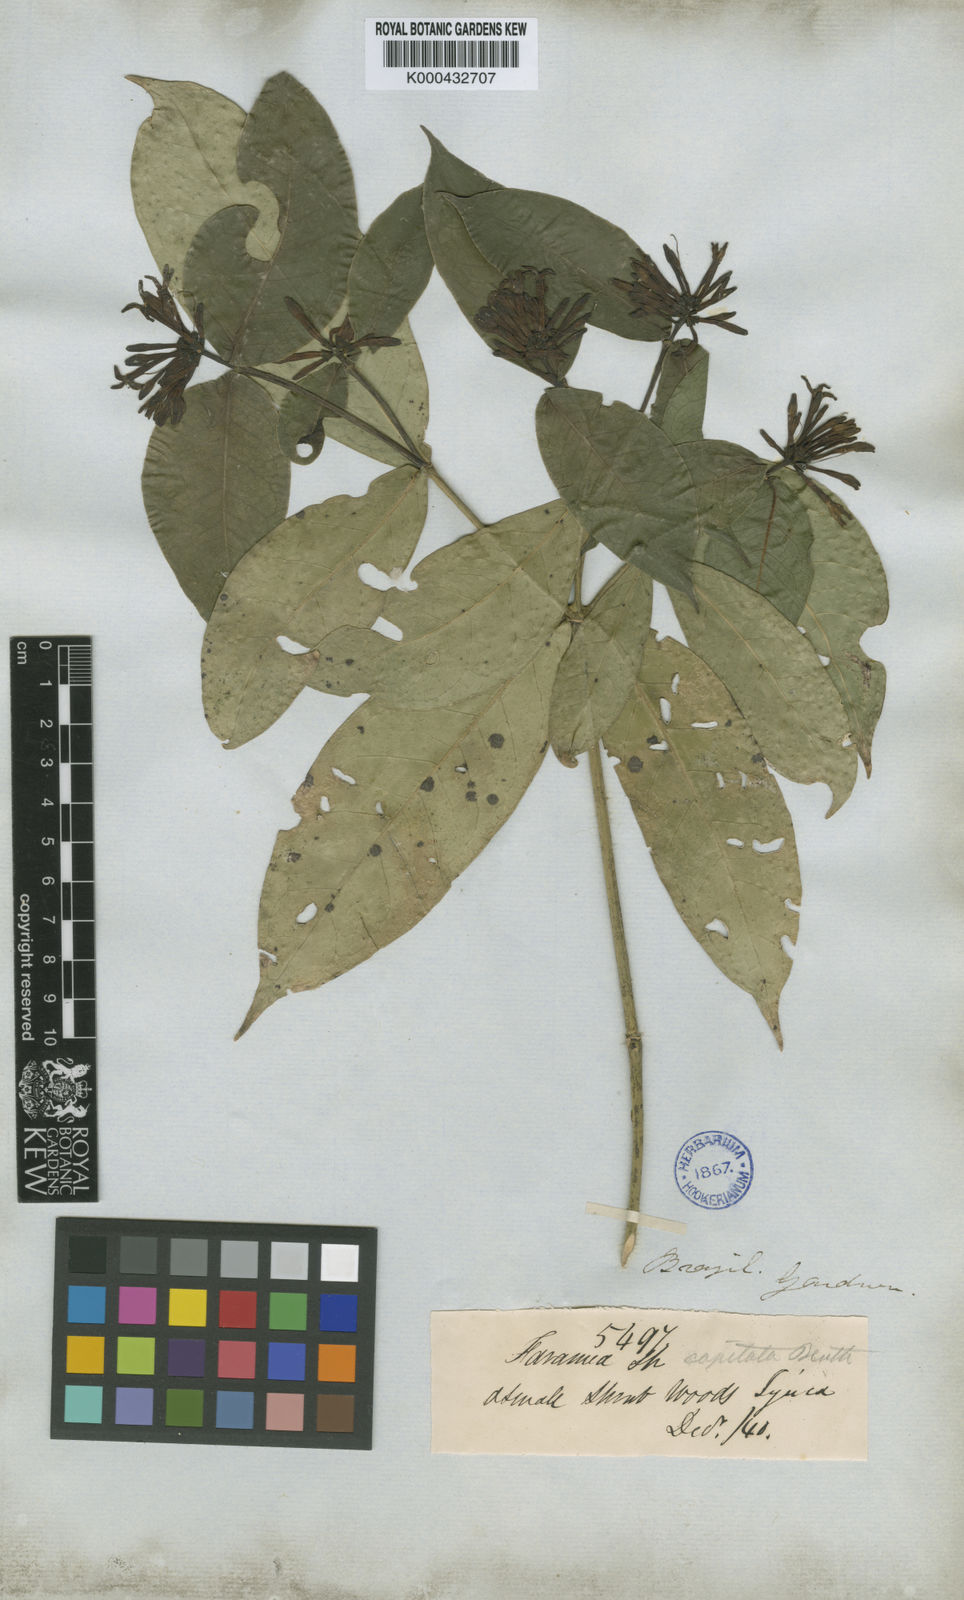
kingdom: Plantae
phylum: Tracheophyta
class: Magnoliopsida
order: Gentianales
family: Rubiaceae
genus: Coussarea
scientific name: Coussarea
